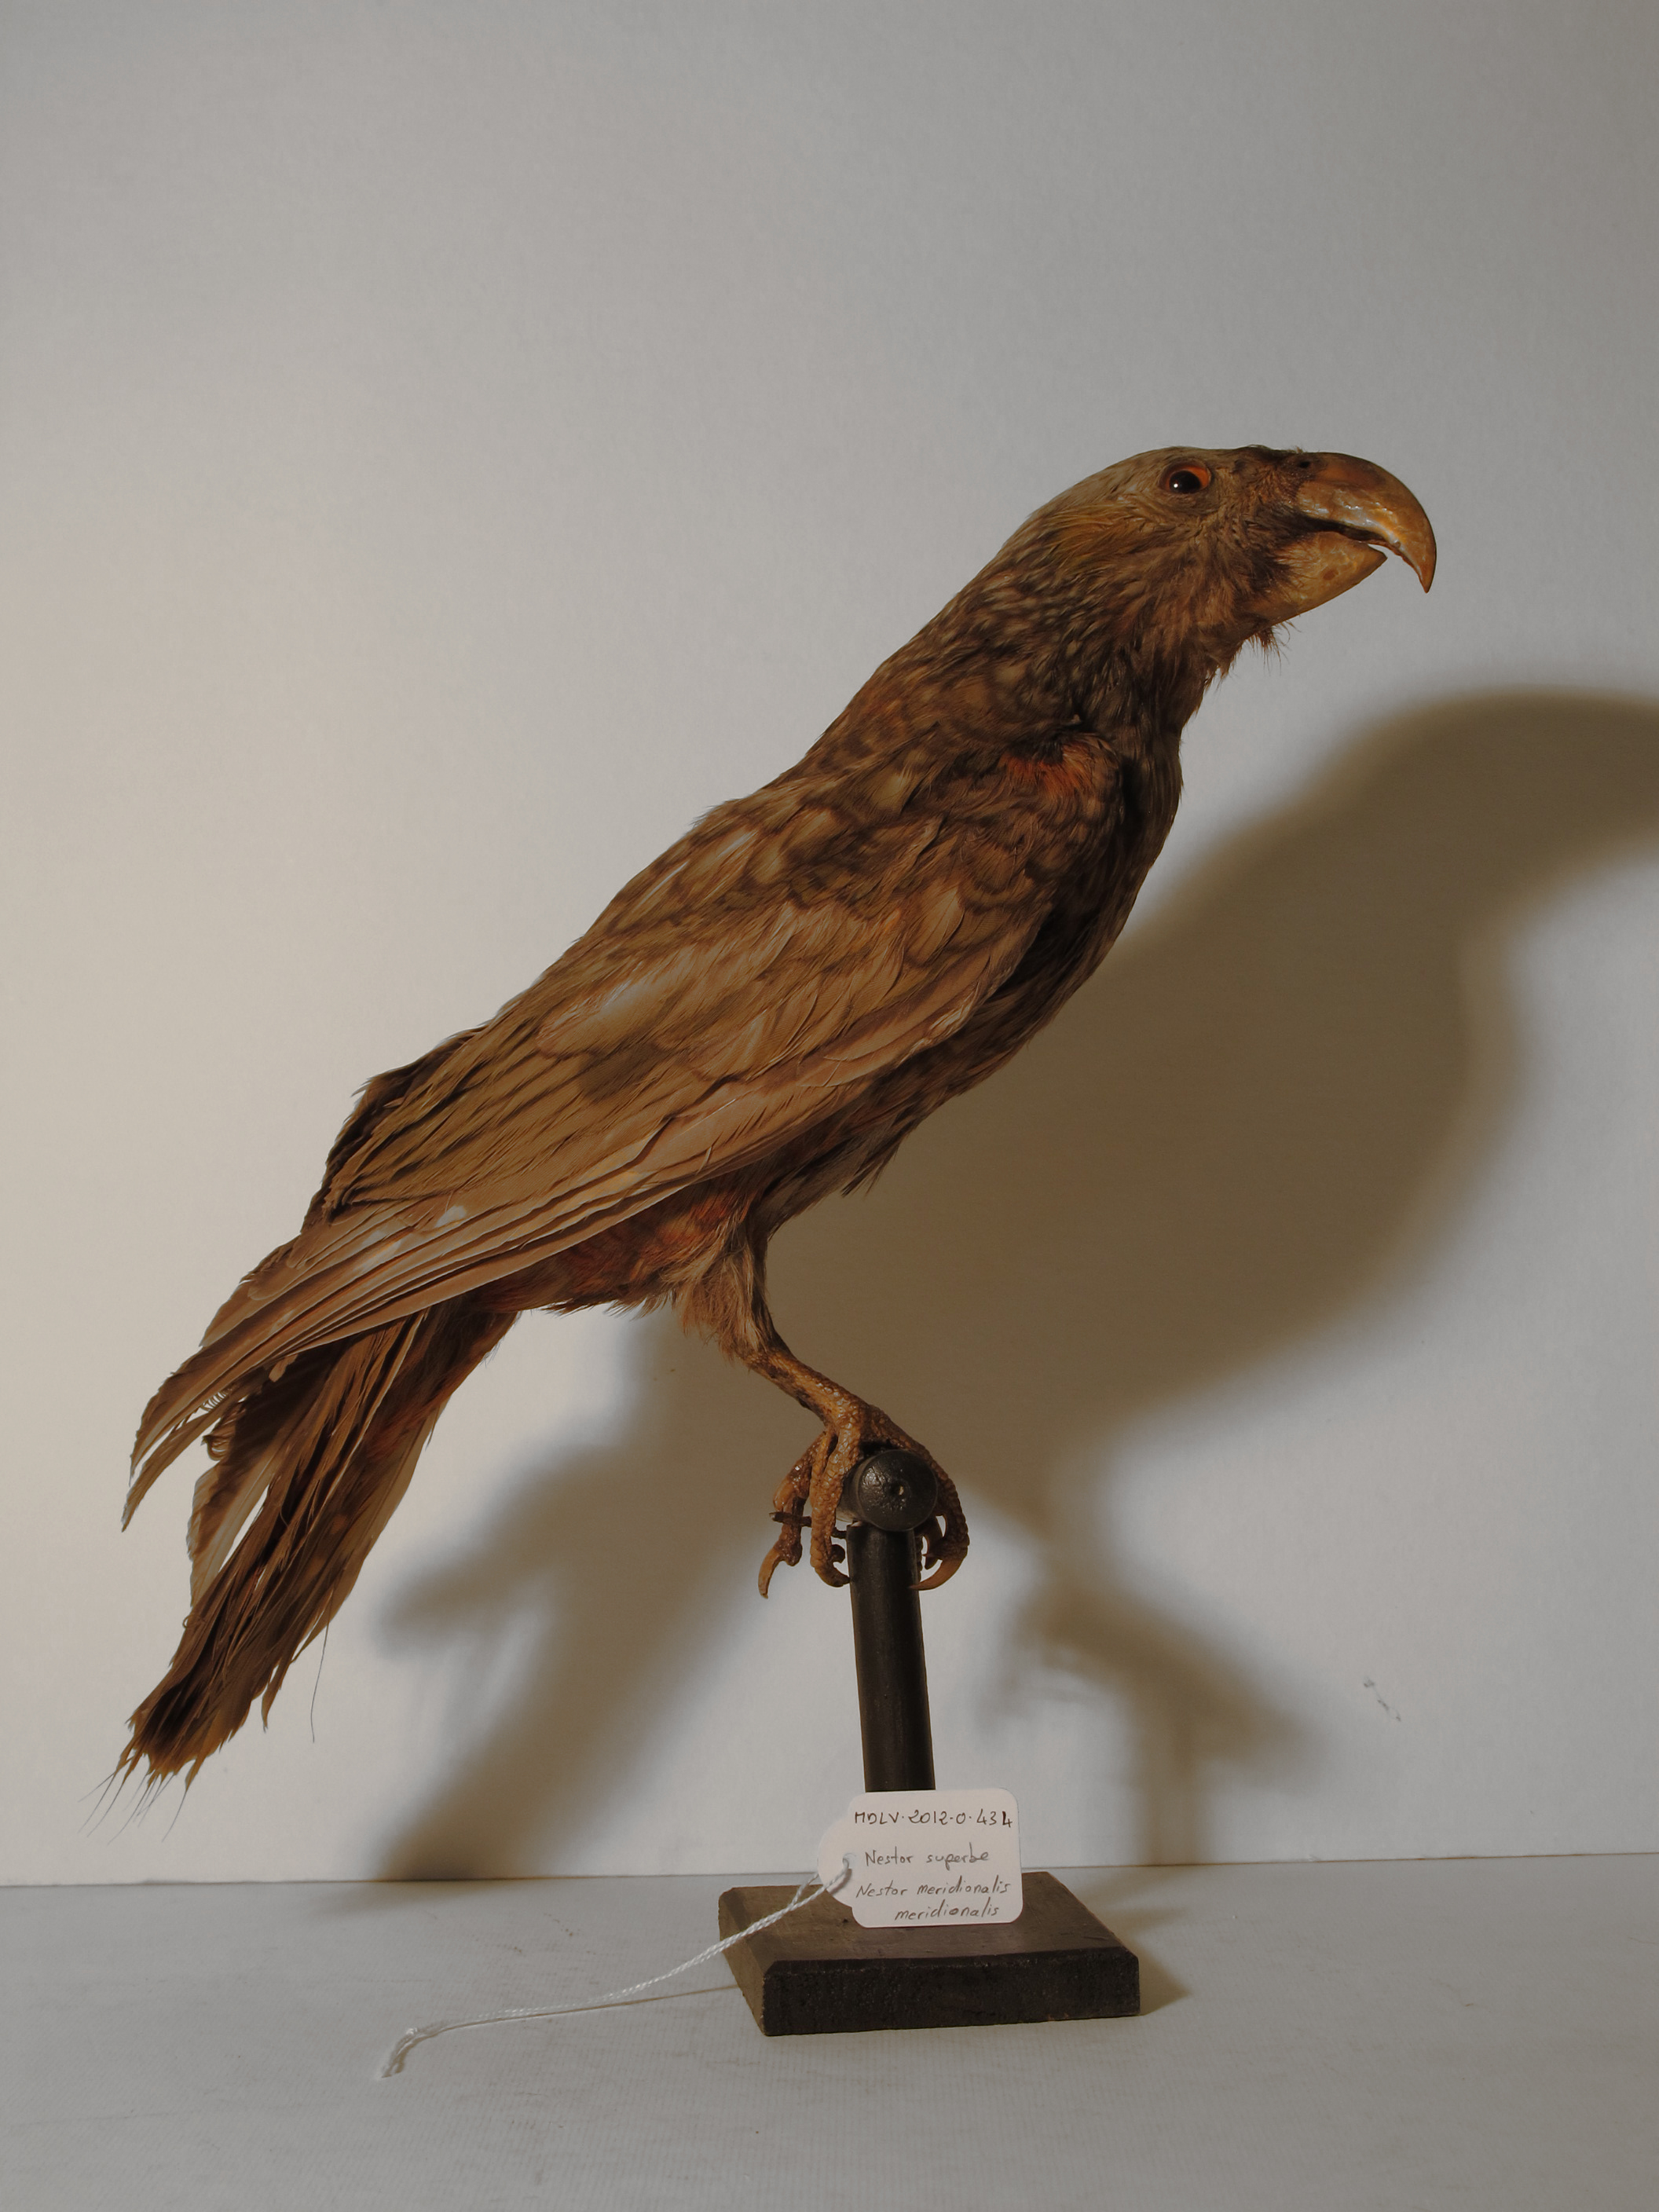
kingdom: Animalia
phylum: Chordata
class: Aves
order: Psittaciformes
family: Psittacidae
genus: Nestor
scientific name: Nestor meridionalis
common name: Kaka
